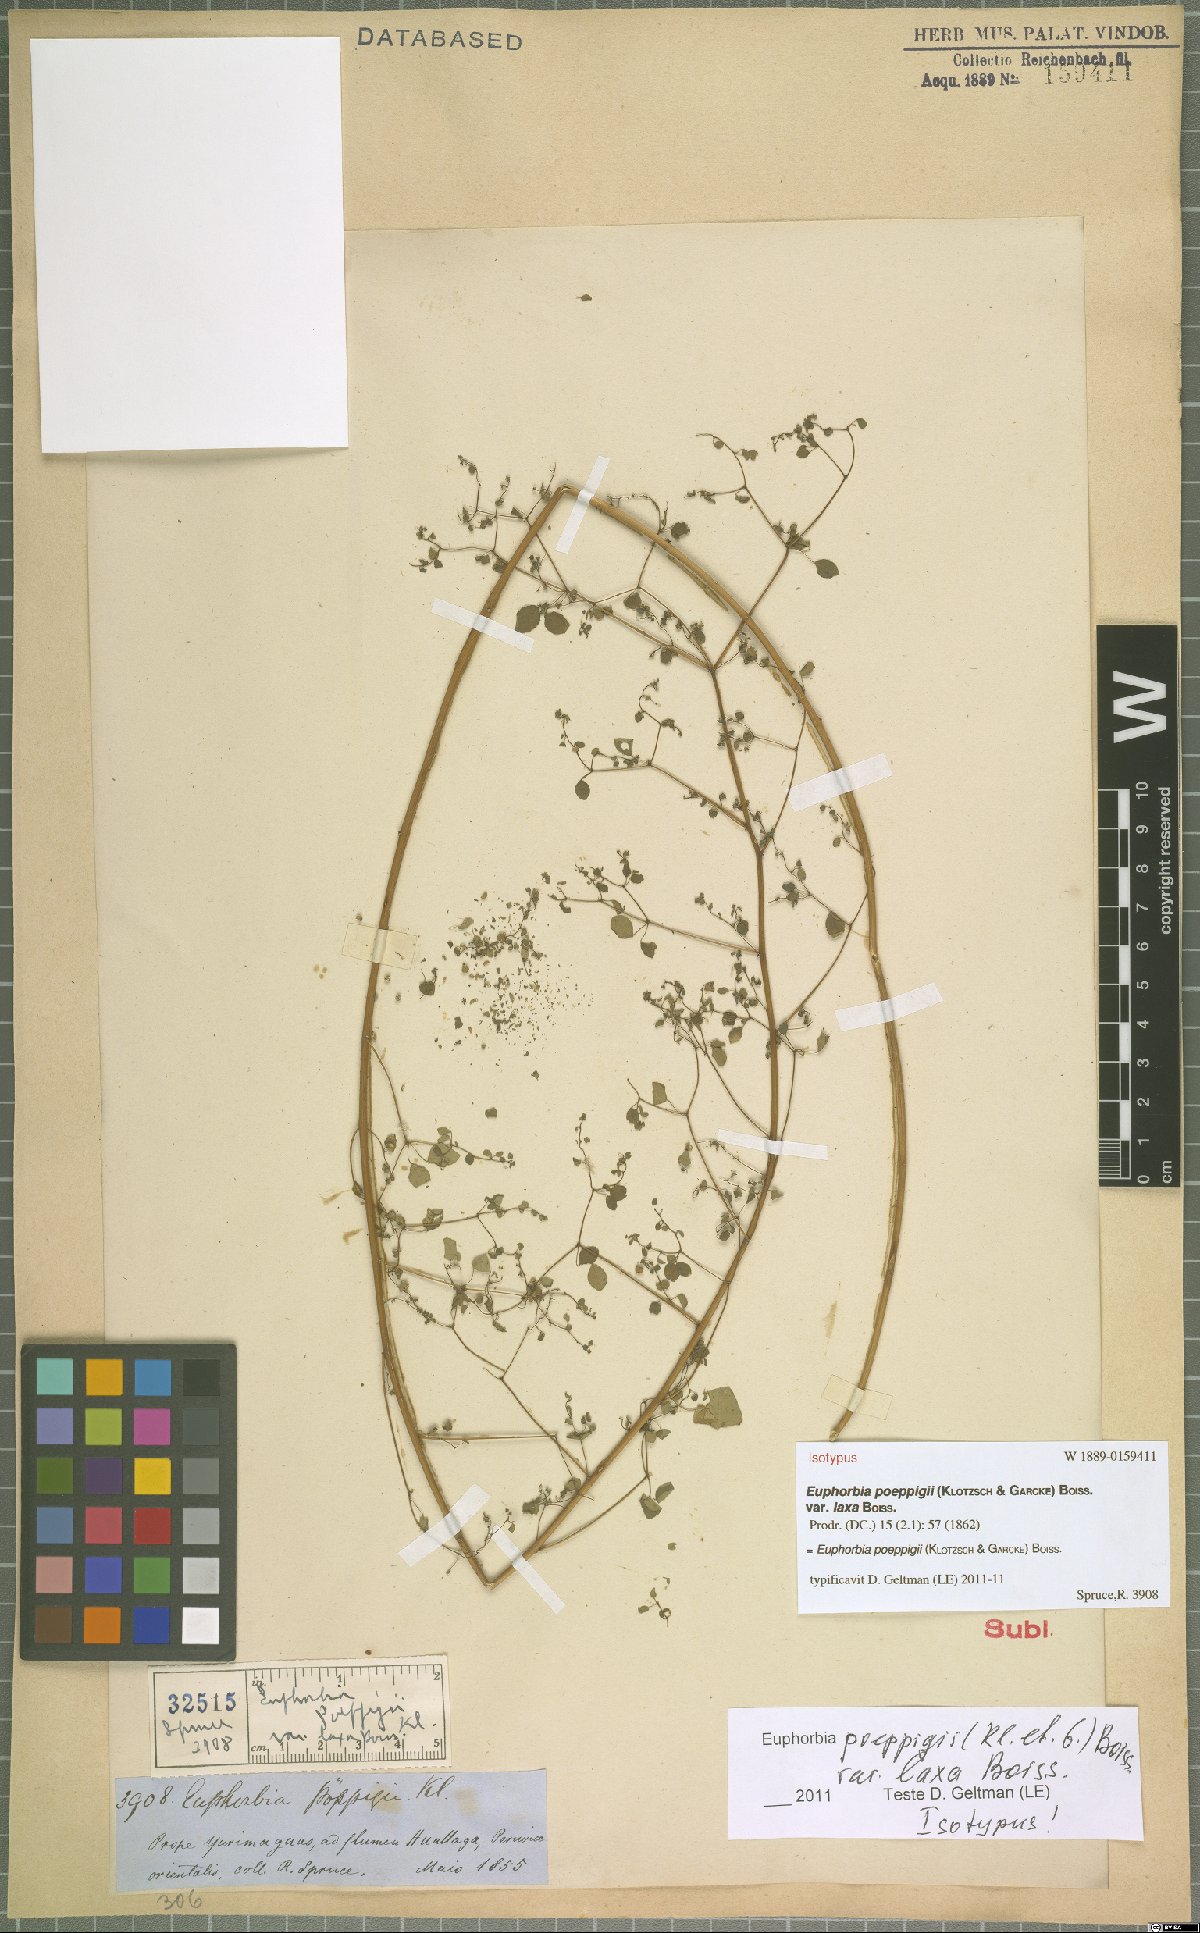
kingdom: Plantae
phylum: Tracheophyta
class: Magnoliopsida
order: Malpighiales
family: Euphorbiaceae
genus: Euphorbia
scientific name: Euphorbia poeppigii
